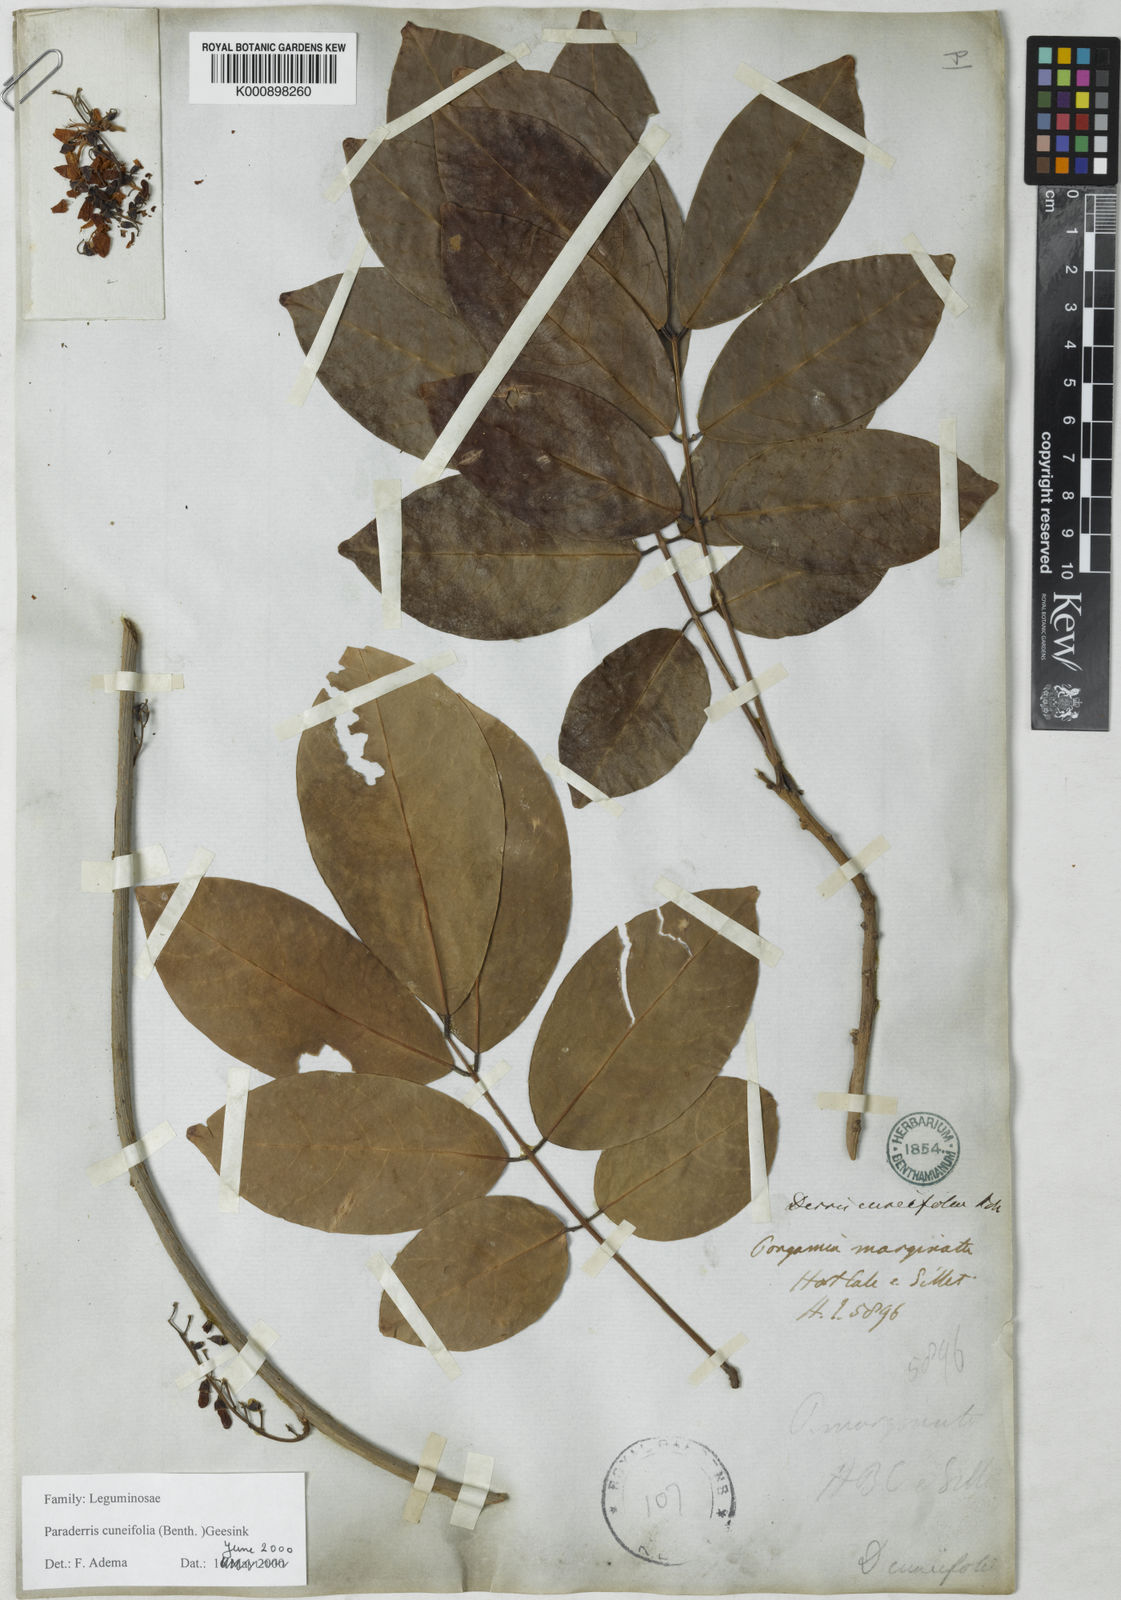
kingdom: Plantae
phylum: Tracheophyta
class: Magnoliopsida
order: Fabales
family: Fabaceae
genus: Derris
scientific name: Derris cuneifolia
